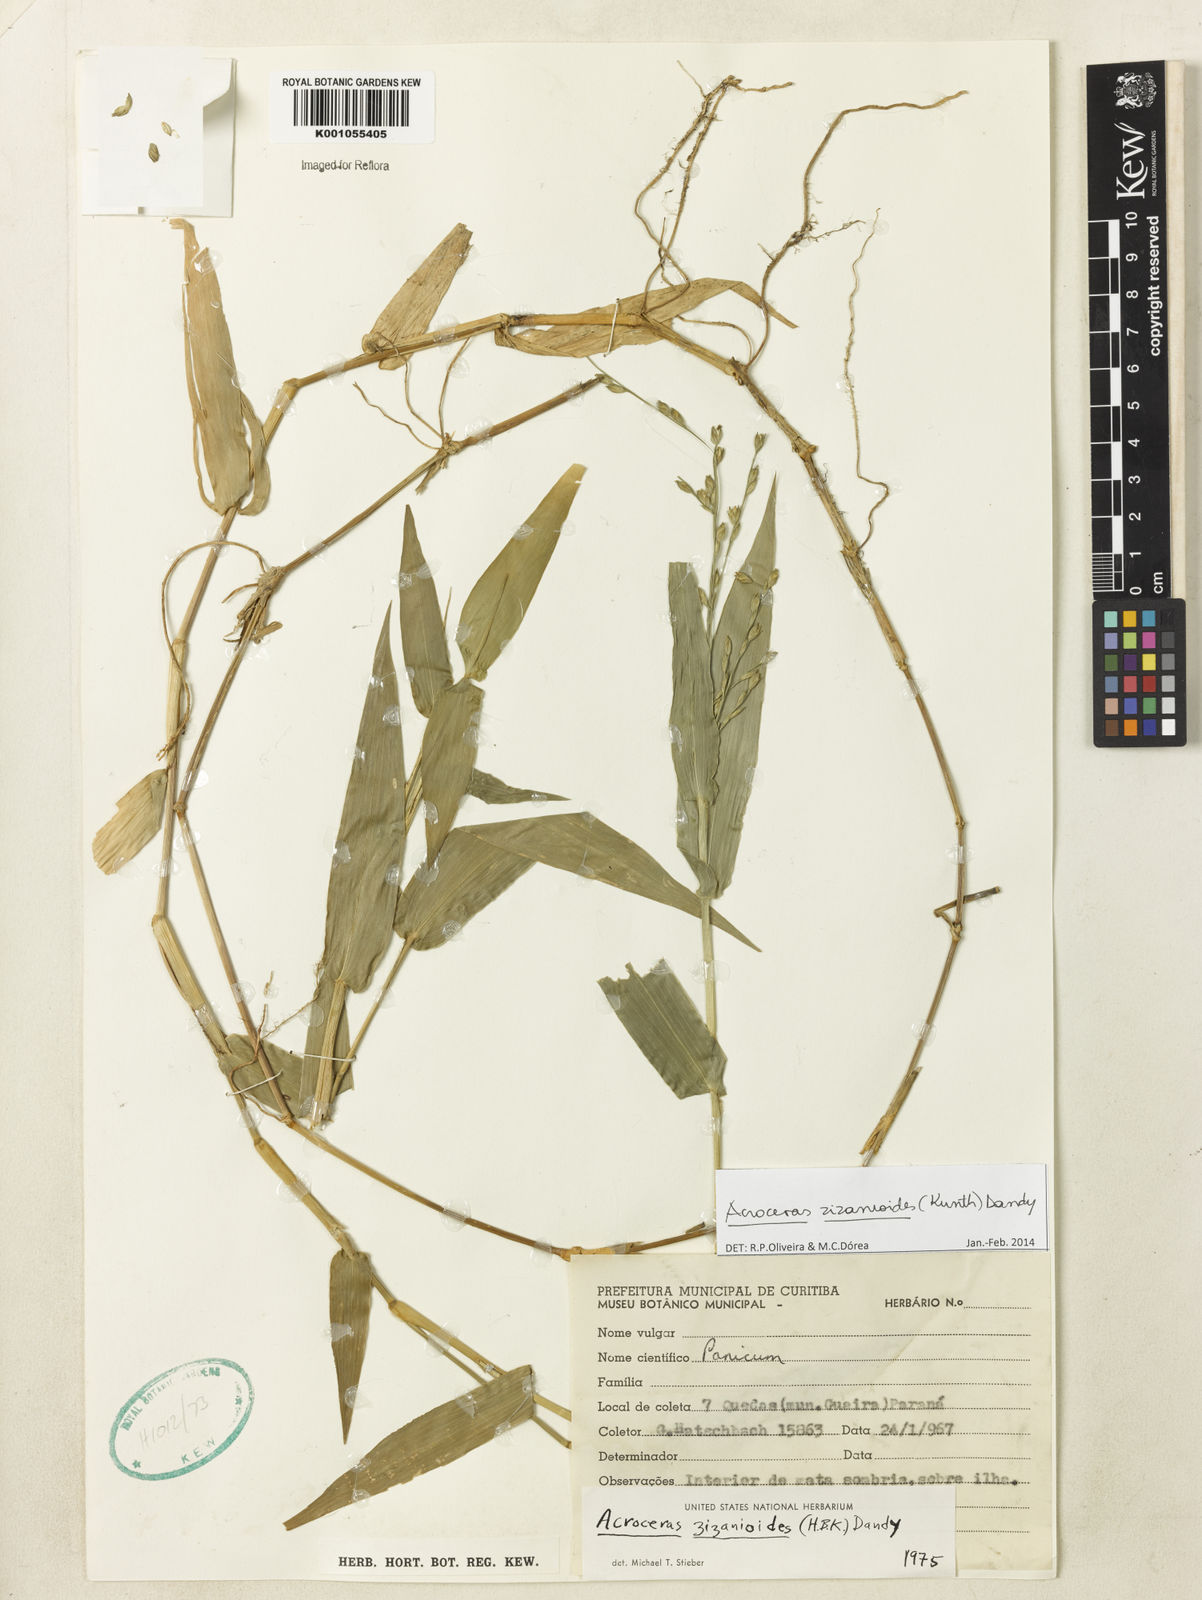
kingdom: Plantae
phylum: Tracheophyta
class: Liliopsida
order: Poales
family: Poaceae
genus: Acroceras
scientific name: Acroceras zizanioides
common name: Oat grass
